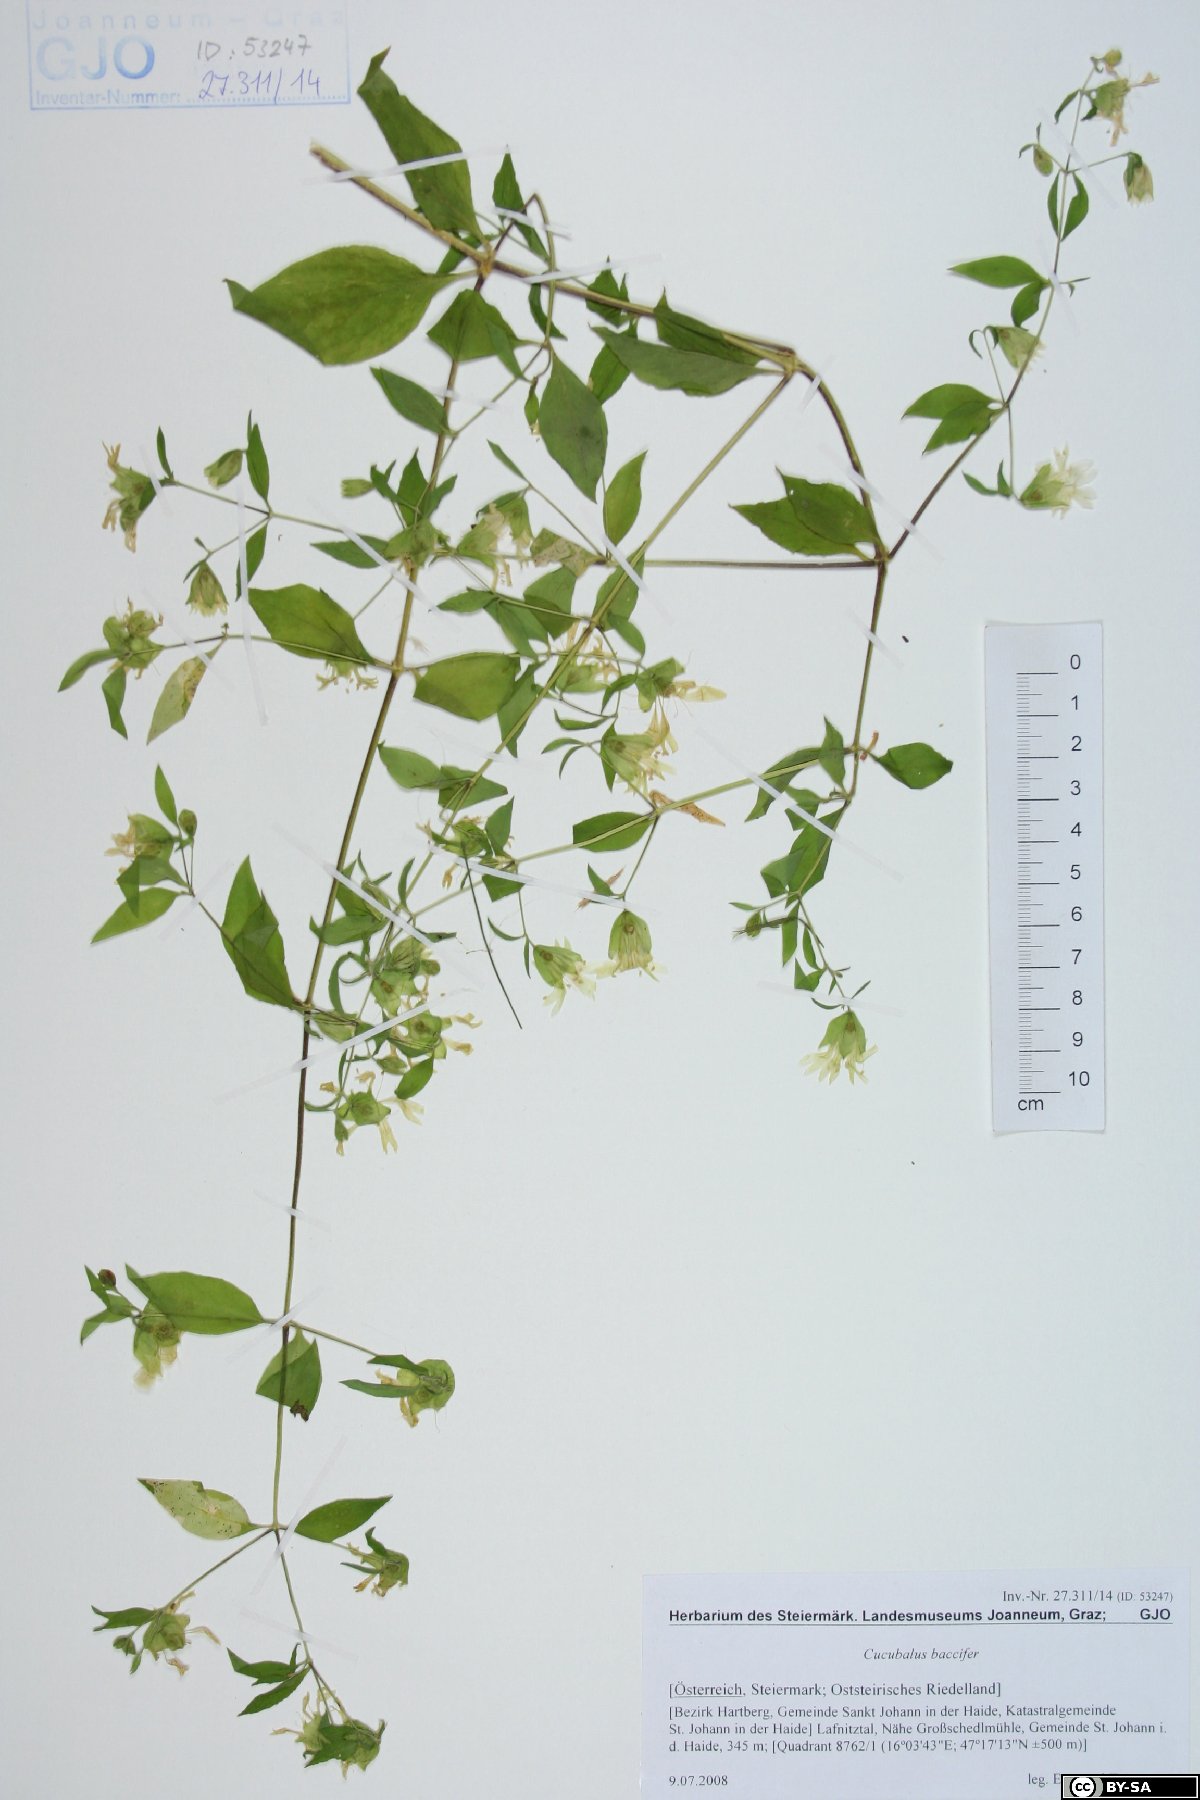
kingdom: Plantae
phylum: Tracheophyta
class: Magnoliopsida
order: Caryophyllales
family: Caryophyllaceae
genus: Silene
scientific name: Silene baccifera
